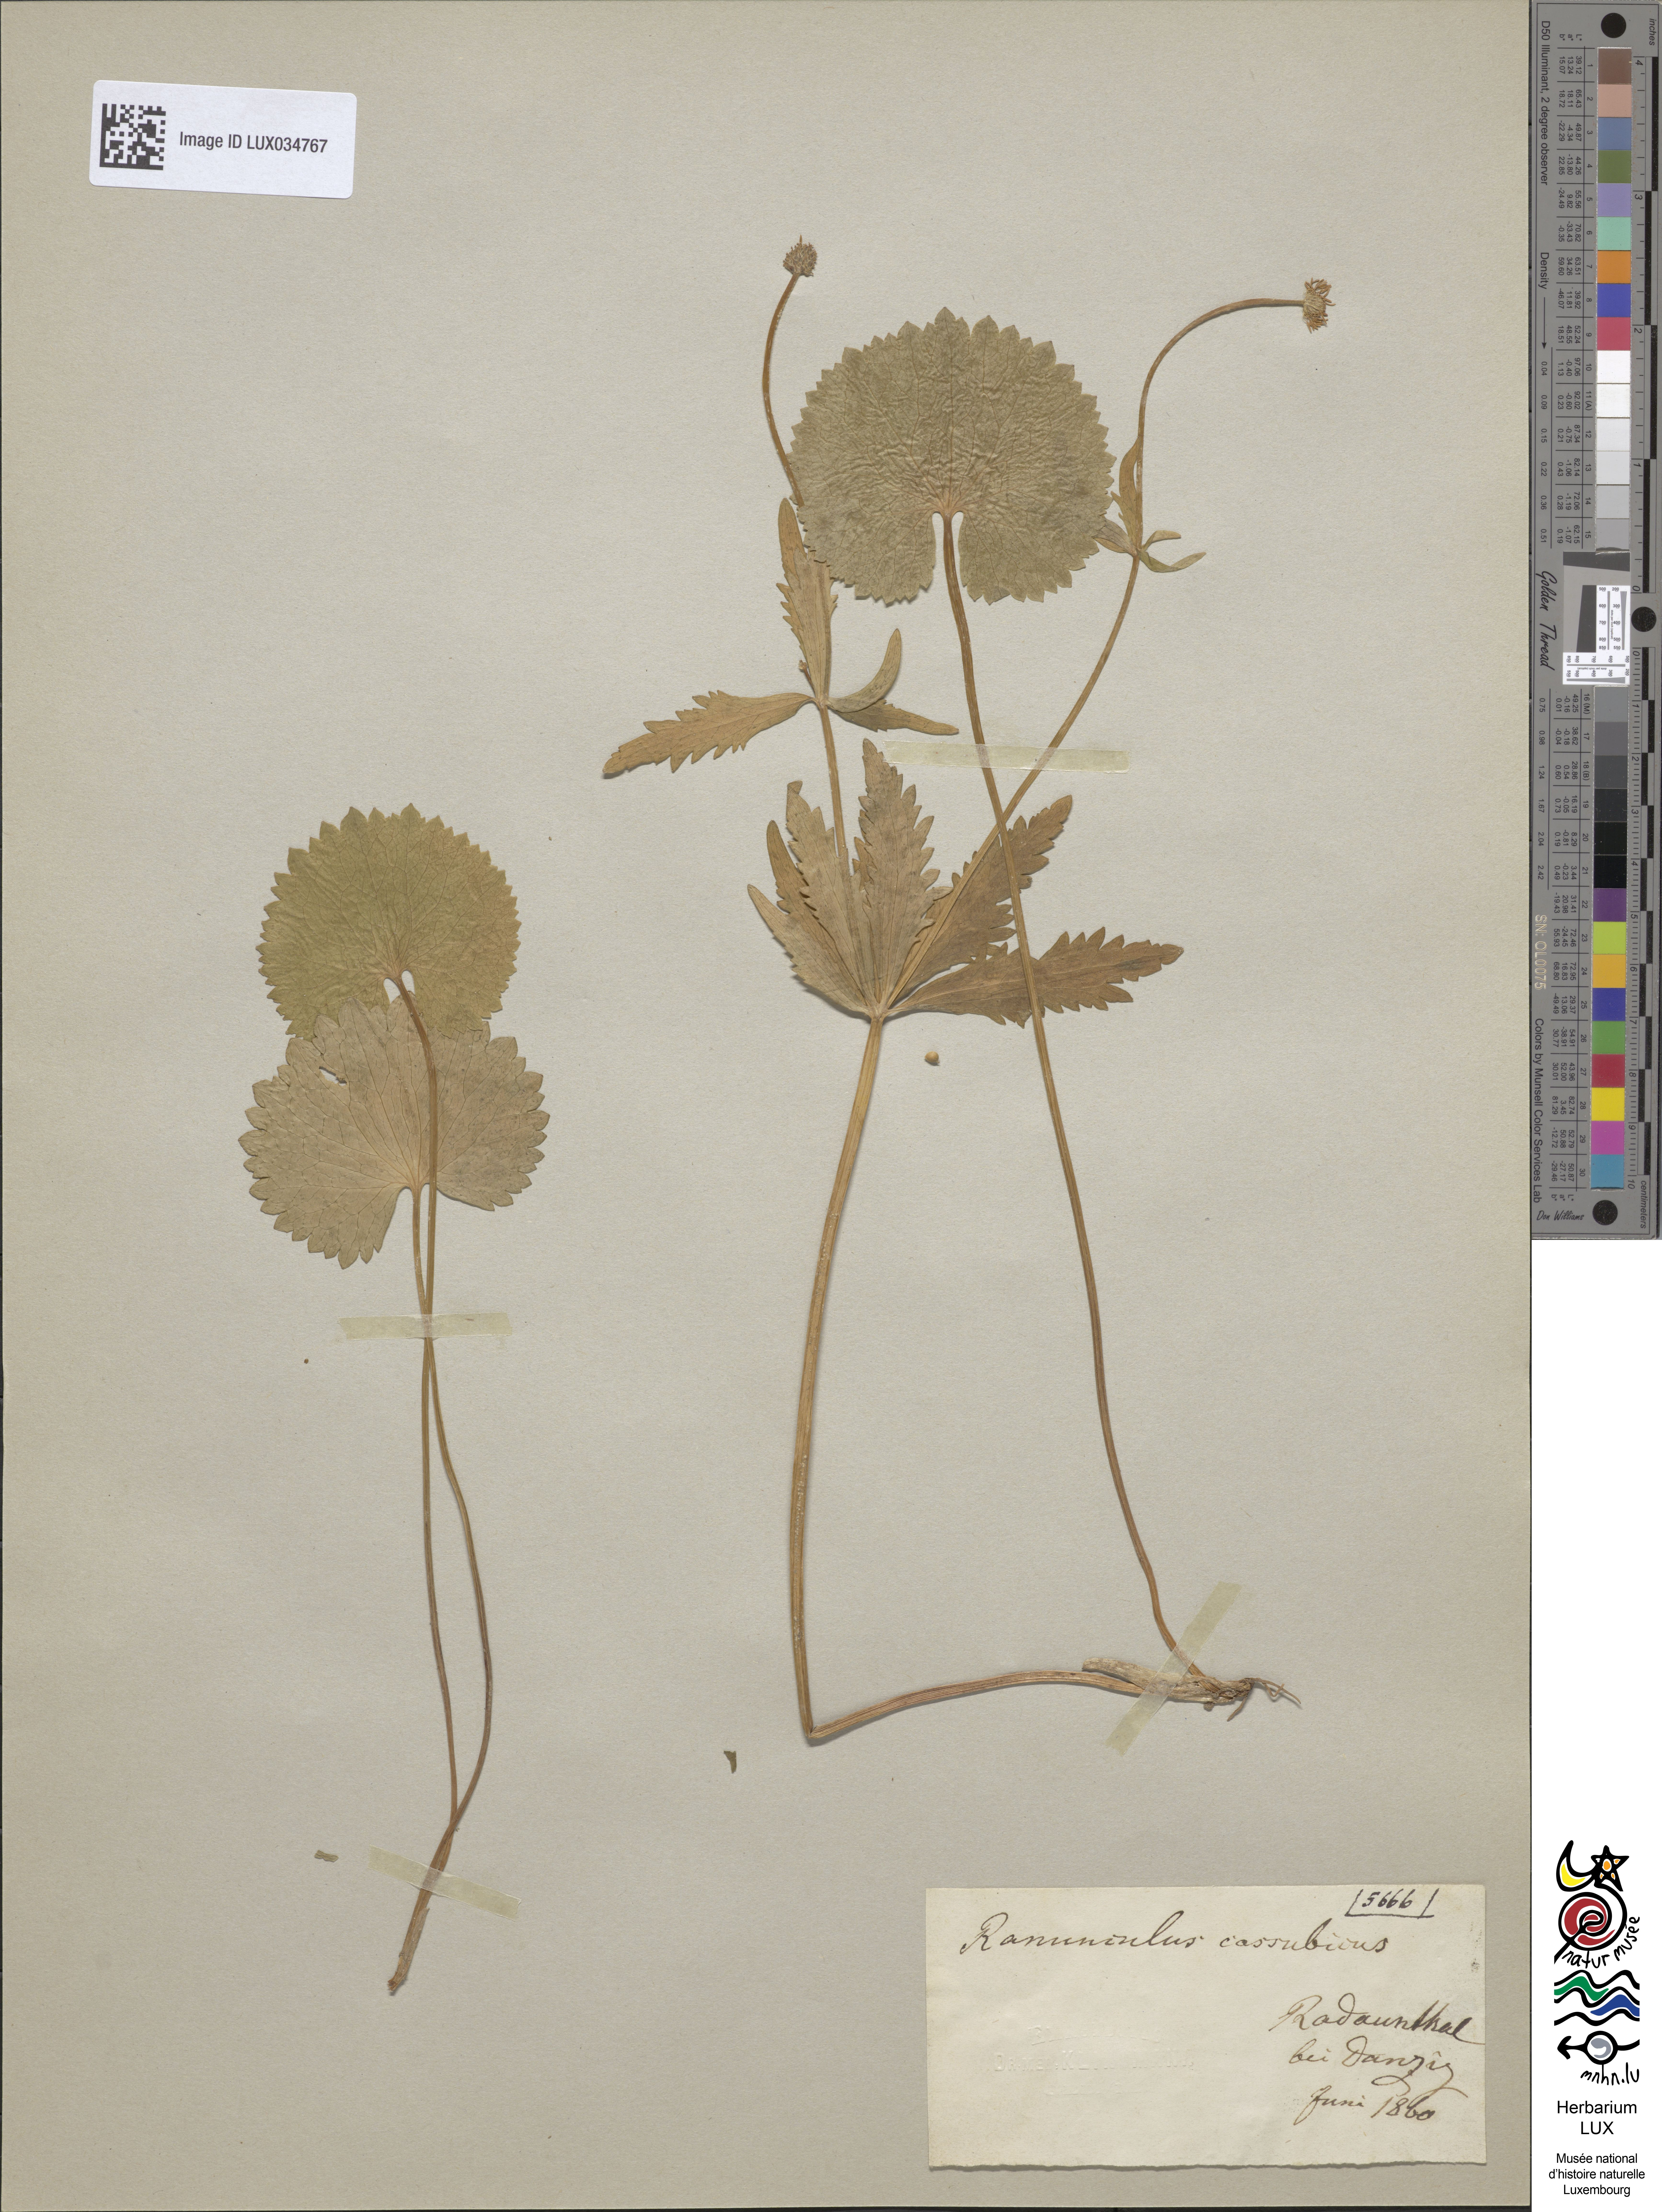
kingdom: Plantae
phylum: Tracheophyta
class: Magnoliopsida
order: Ranunculales
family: Ranunculaceae
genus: Ranunculus
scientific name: Ranunculus cassubicus
